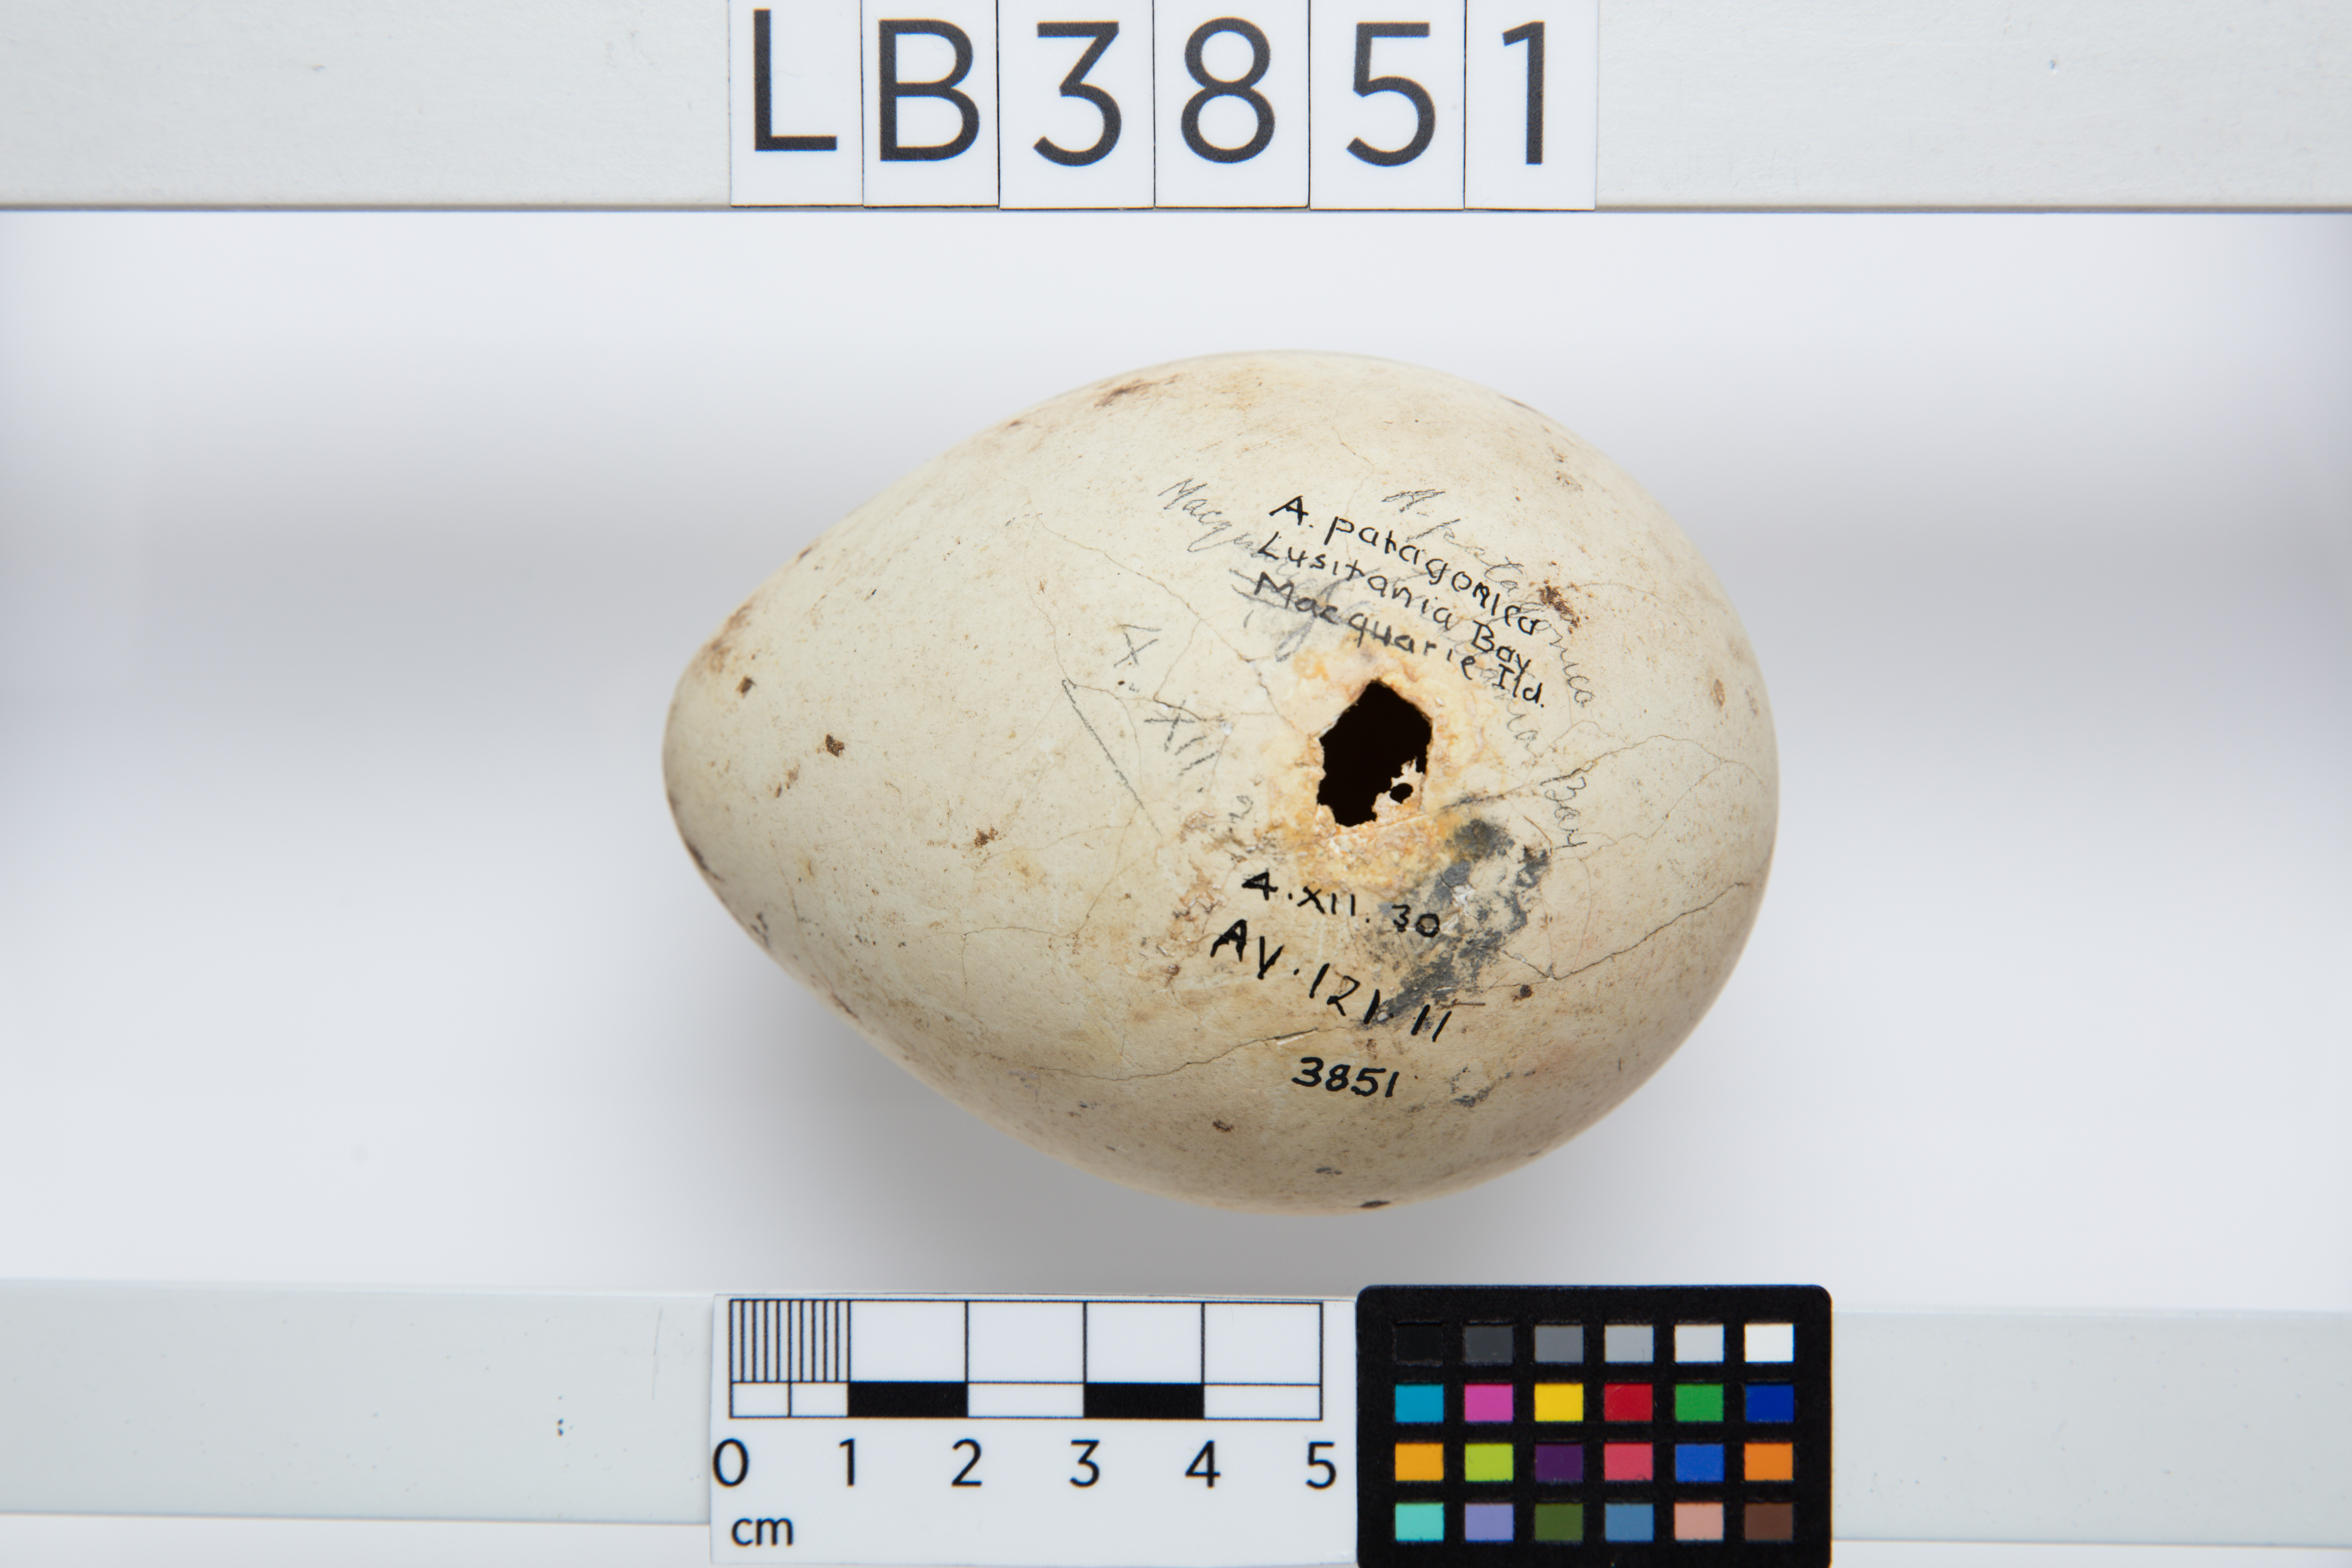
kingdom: Animalia
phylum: Chordata
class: Aves
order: Sphenisciformes
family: Spheniscidae
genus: Aptenodytes
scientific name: Aptenodytes patagonicus
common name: King penguin
